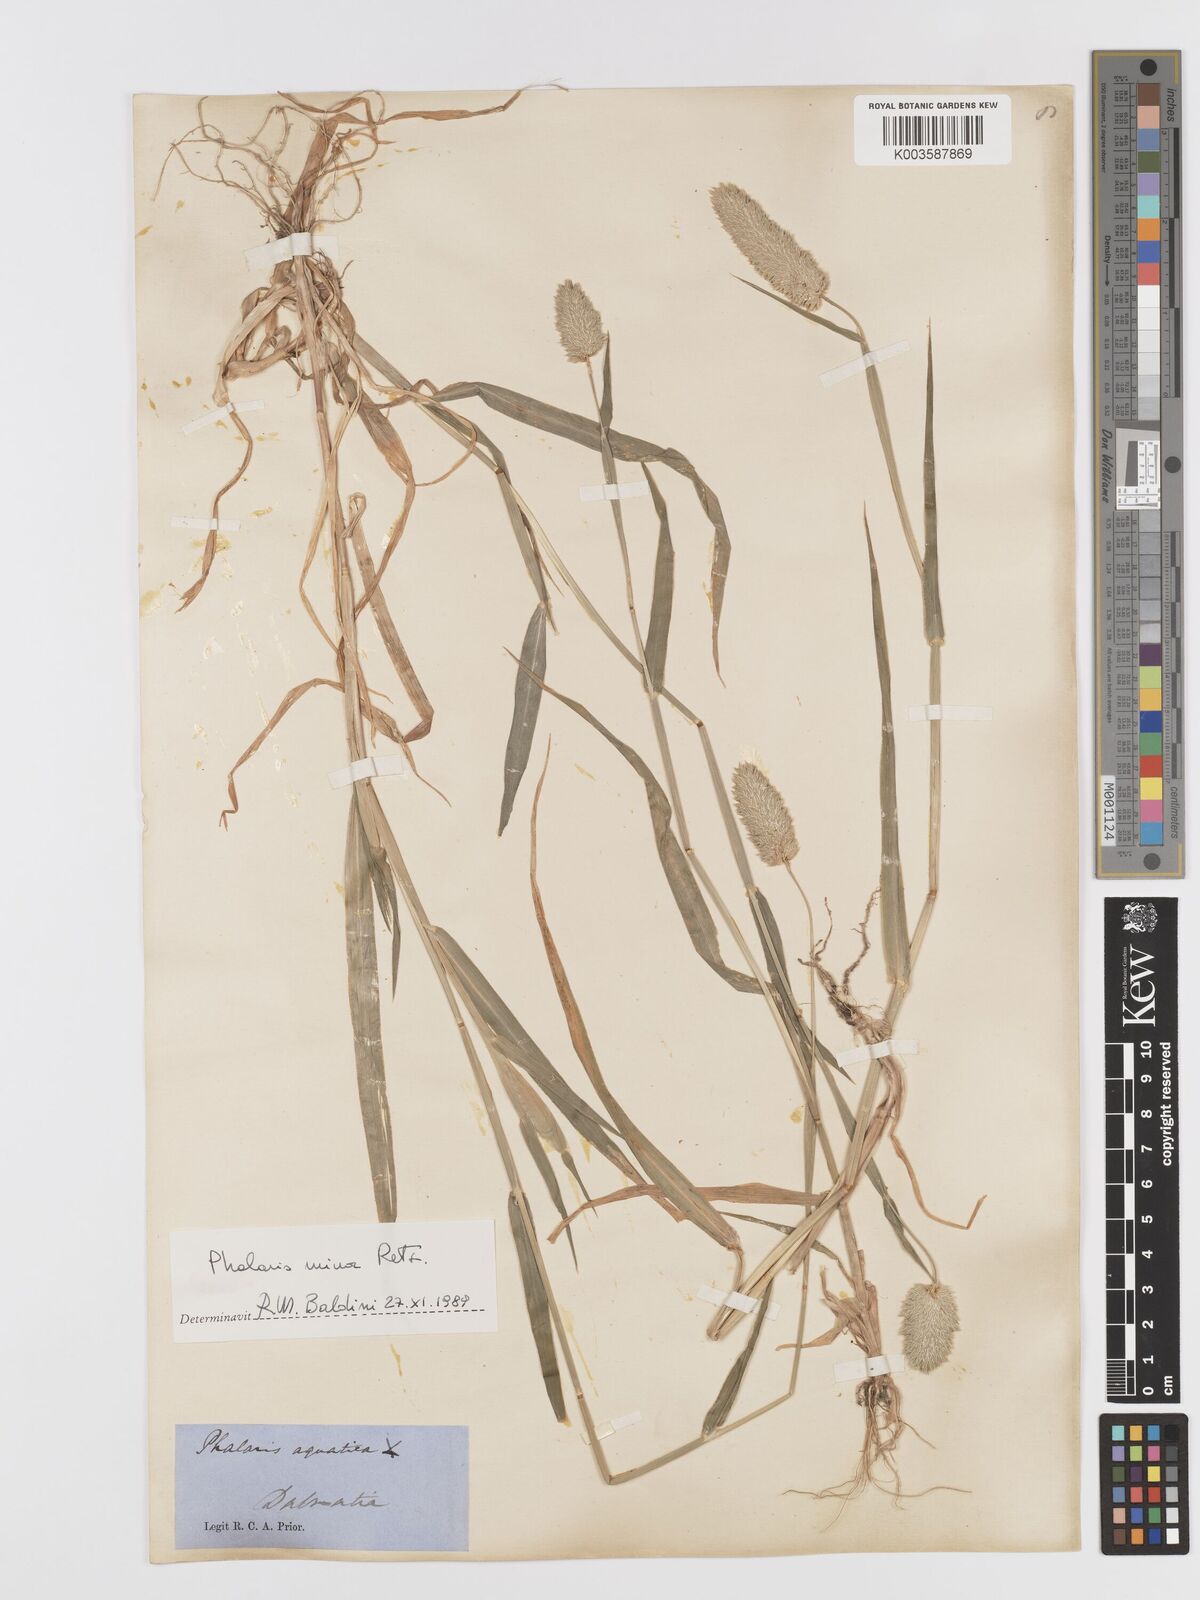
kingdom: Plantae
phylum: Tracheophyta
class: Liliopsida
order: Poales
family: Poaceae
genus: Phalaris
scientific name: Phalaris minor
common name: Littleseed canarygrass
